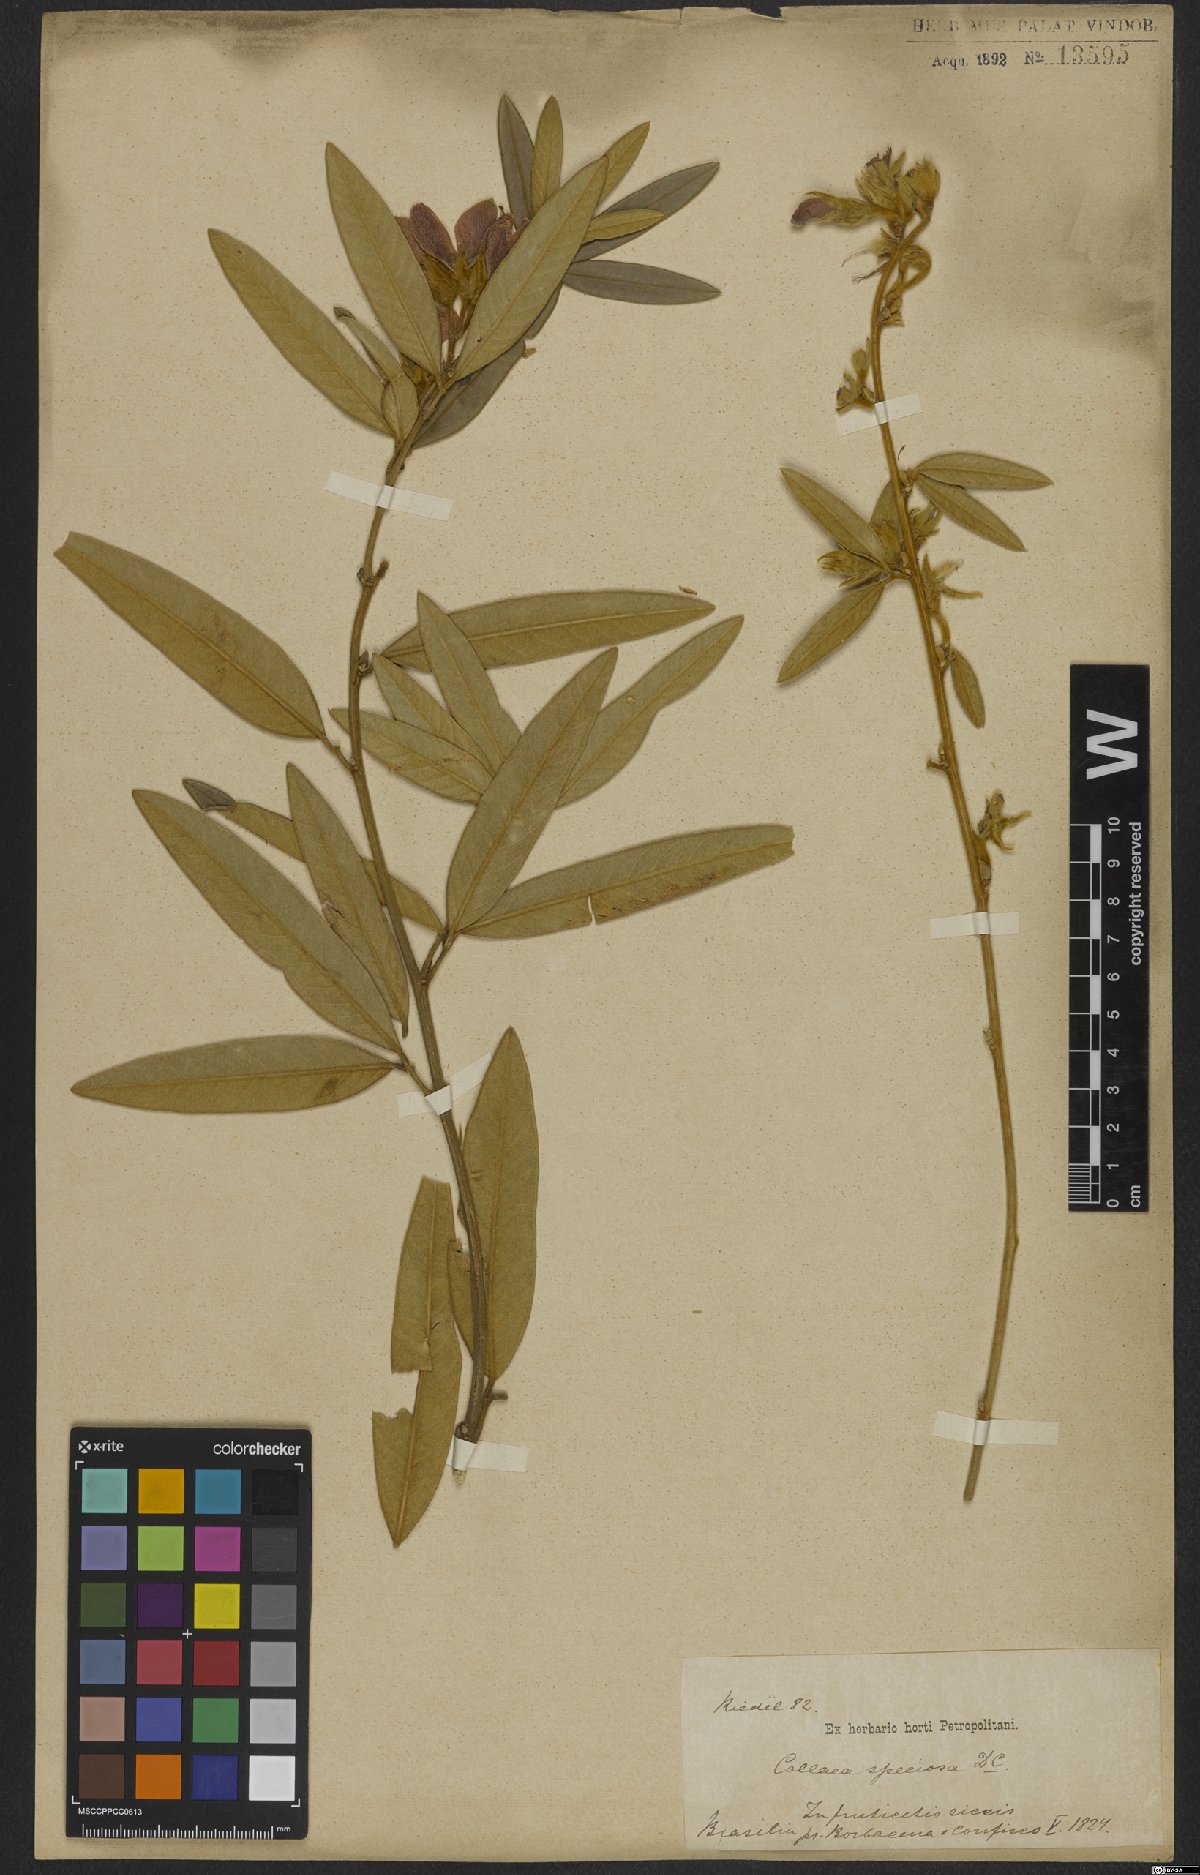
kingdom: Plantae
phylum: Tracheophyta
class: Magnoliopsida
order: Fabales
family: Fabaceae
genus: Collaea
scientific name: Collaea speciosa
